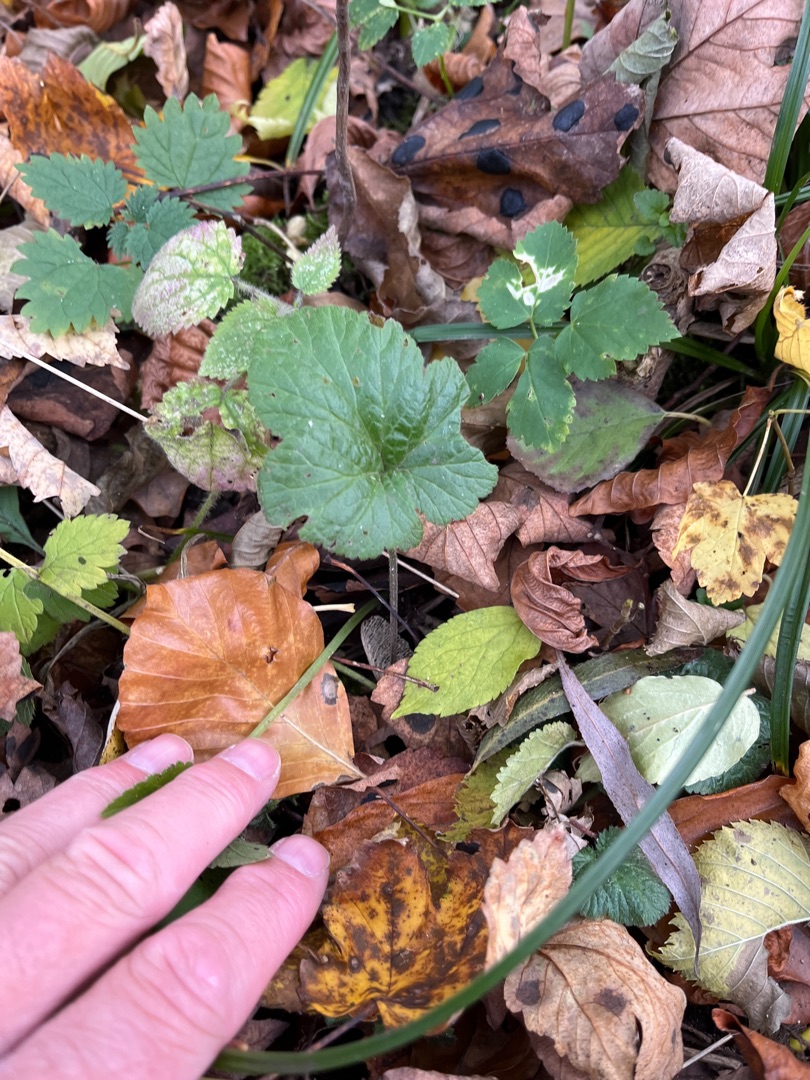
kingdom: Plantae
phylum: Tracheophyta
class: Magnoliopsida
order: Rosales
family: Rosaceae
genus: Geum
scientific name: Geum urbanum
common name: Feber-nellikerod
